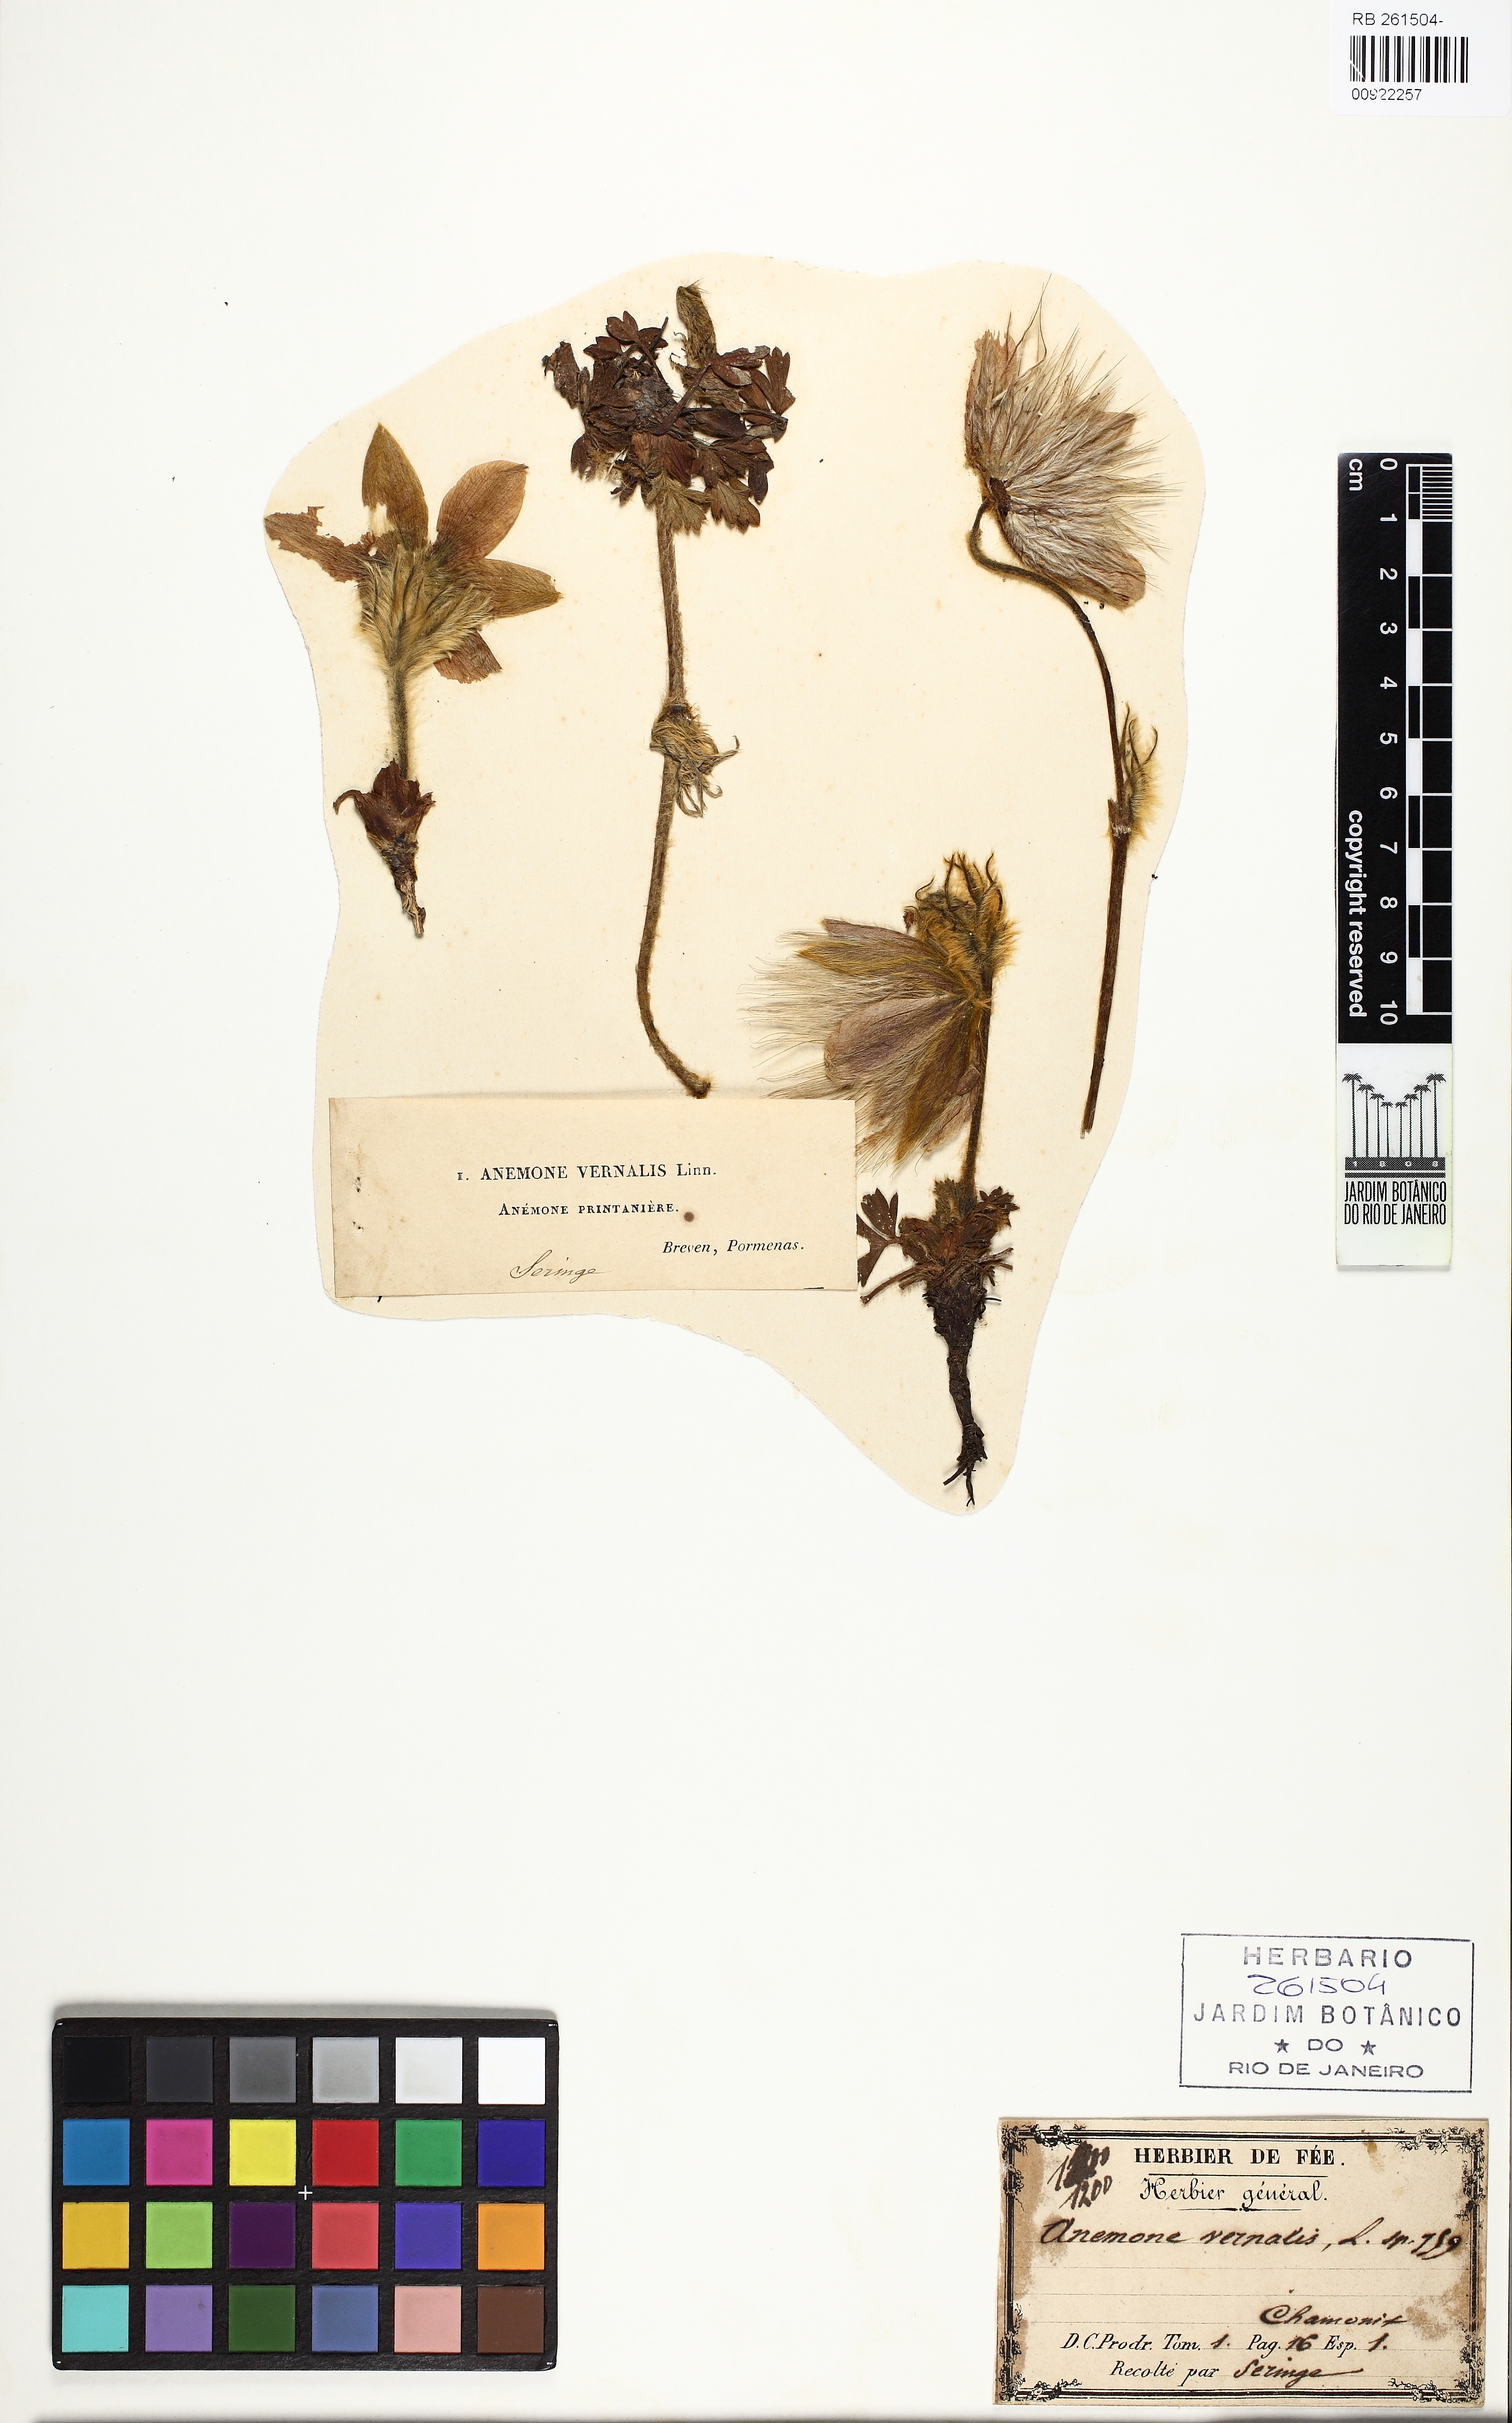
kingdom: Plantae
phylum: Tracheophyta
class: Magnoliopsida
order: Ranunculales
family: Ranunculaceae
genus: Pulsatilla
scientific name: Pulsatilla vernalis
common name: Spring pasque flower
